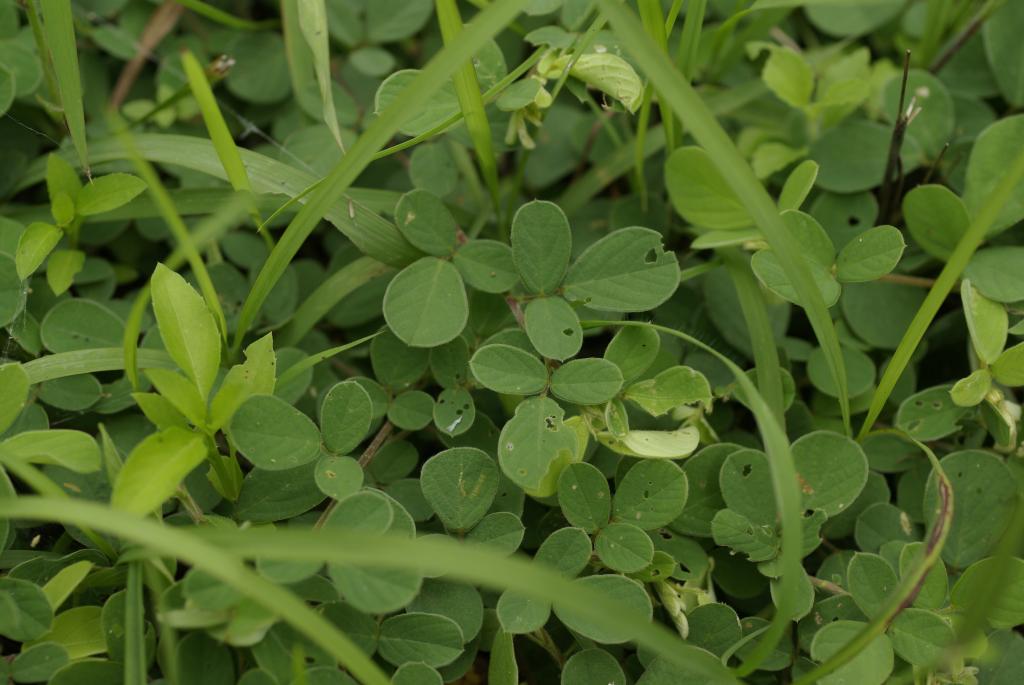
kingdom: Plantae
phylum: Tracheophyta
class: Magnoliopsida
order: Fabales
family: Fabaceae
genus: Pycnospora
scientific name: Pycnospora lutescens
